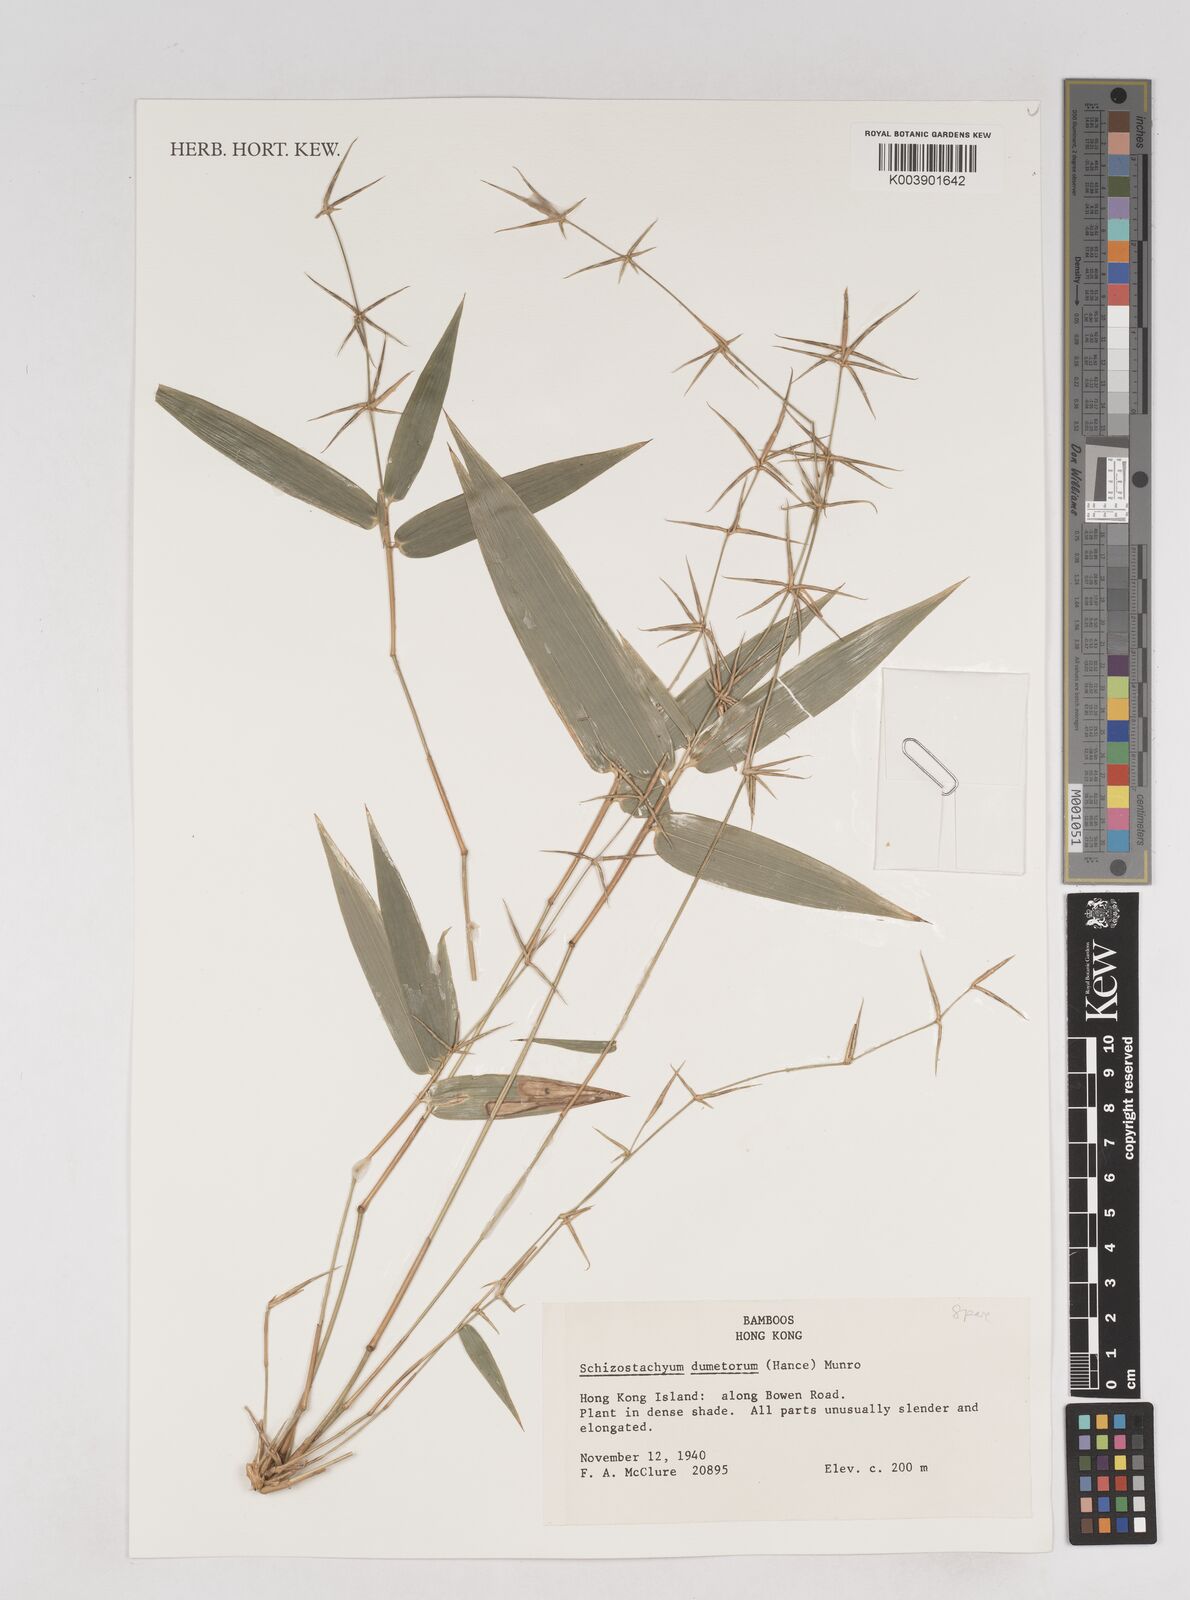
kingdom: Plantae
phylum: Tracheophyta
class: Liliopsida
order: Poales
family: Poaceae
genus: Schizostachyum
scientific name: Schizostachyum dumetorum
